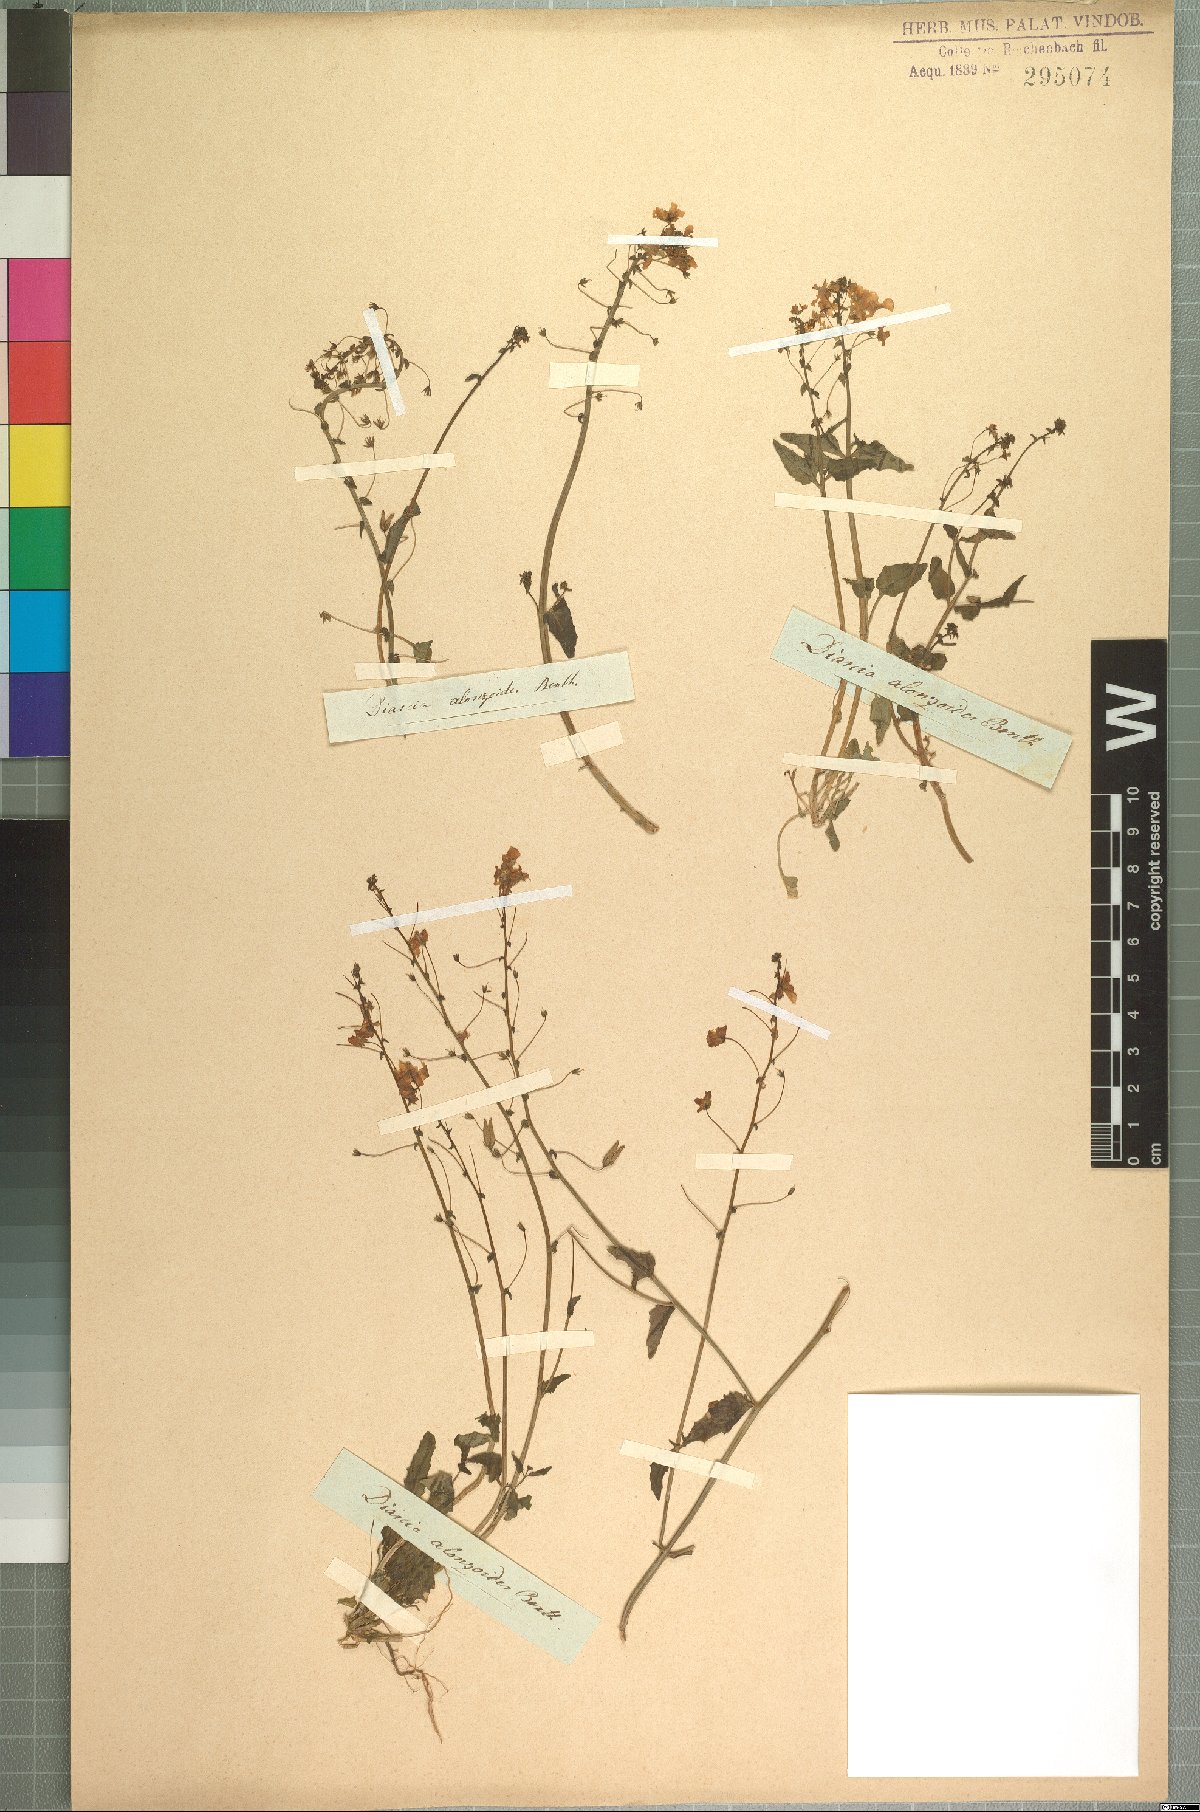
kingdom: Plantae
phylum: Tracheophyta
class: Magnoliopsida
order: Lamiales
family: Scrophulariaceae
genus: Diascia
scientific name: Diascia alonsooides
